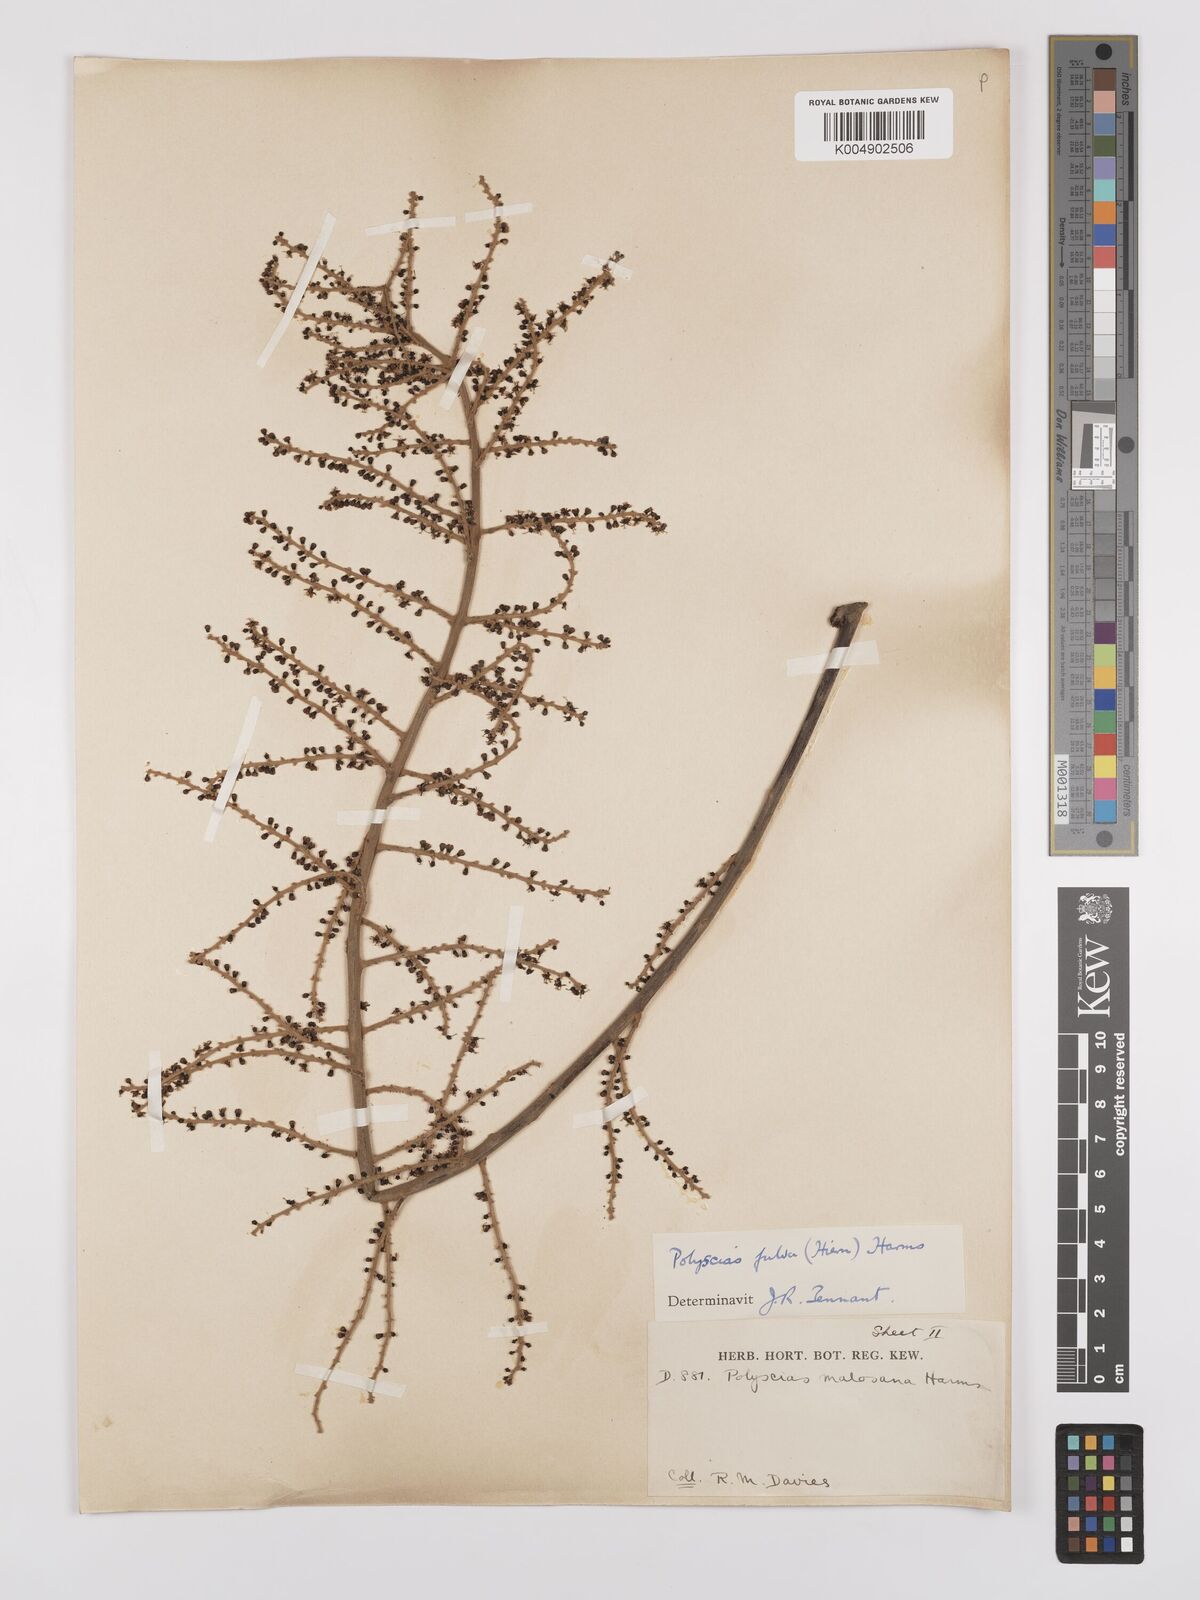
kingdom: Plantae
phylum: Tracheophyta
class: Magnoliopsida
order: Apiales
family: Araliaceae
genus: Polyscias
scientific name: Polyscias fulva
